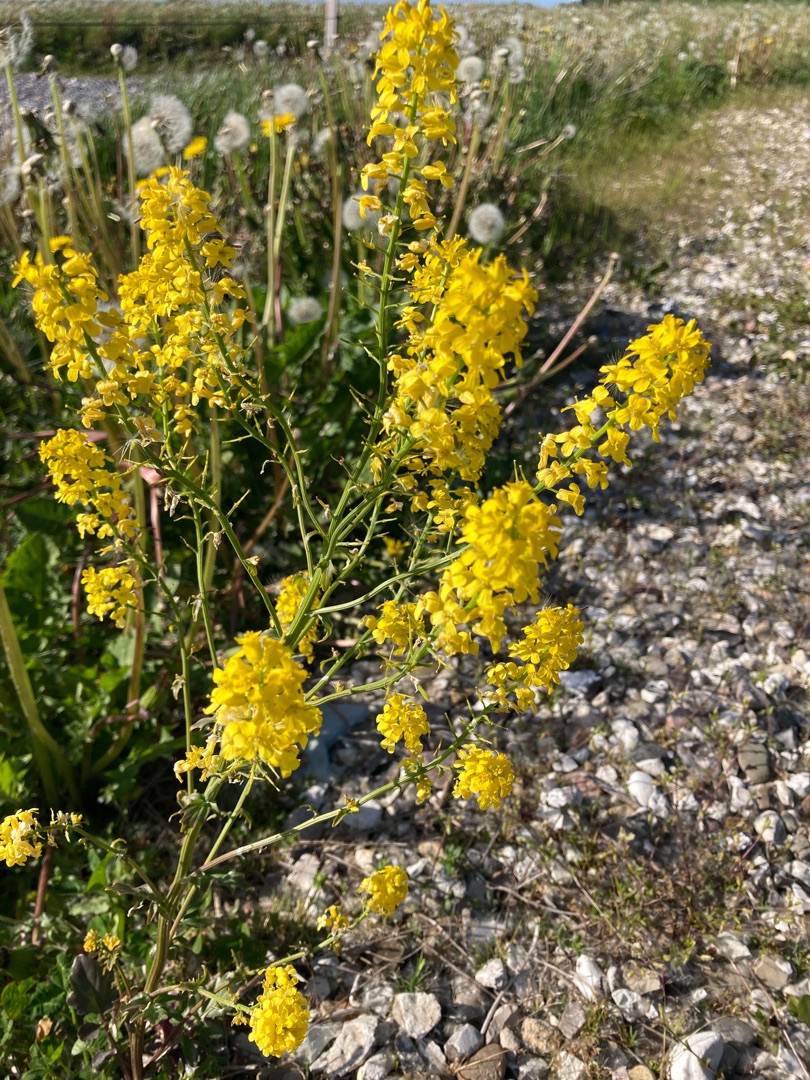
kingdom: Plantae
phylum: Tracheophyta
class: Magnoliopsida
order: Brassicales
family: Brassicaceae
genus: Barbarea
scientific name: Barbarea intermedia
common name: Randhåret vinterkarse
